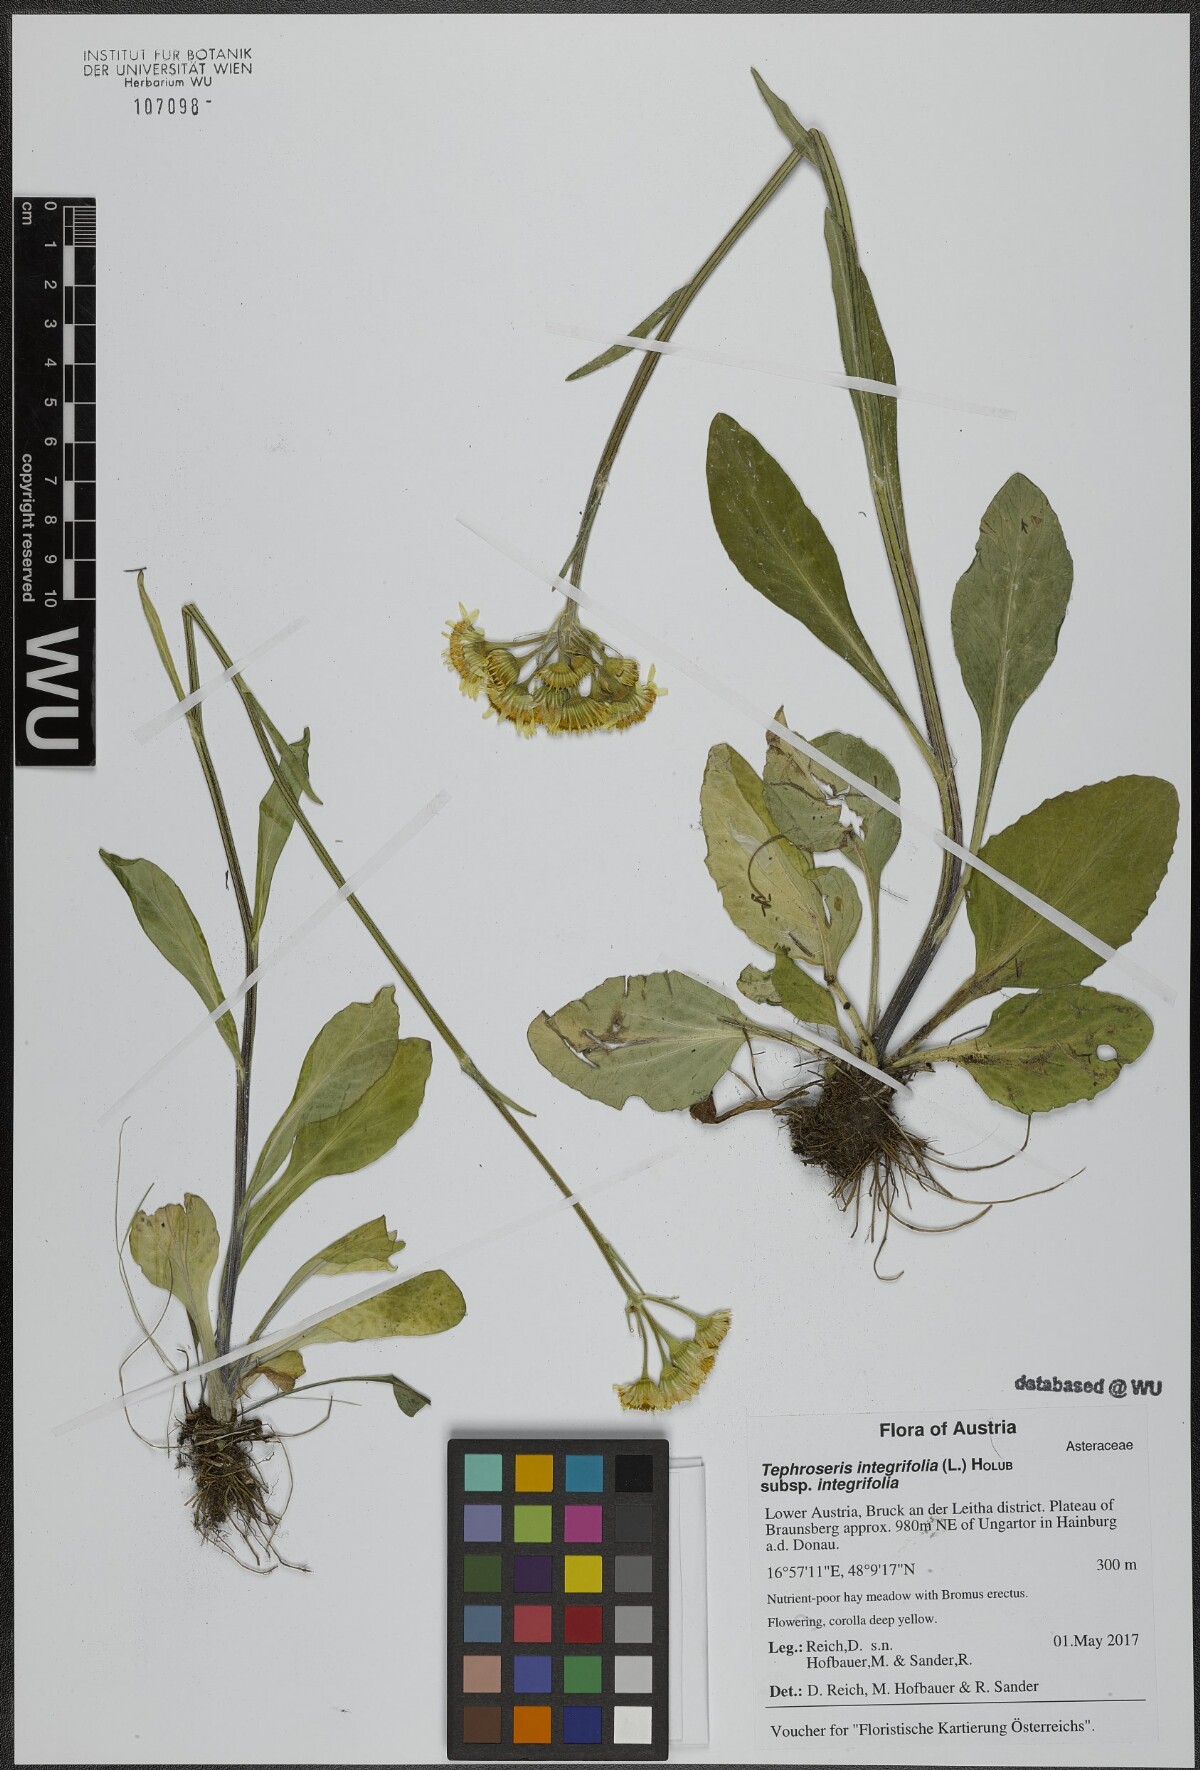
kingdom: Plantae
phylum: Tracheophyta
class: Magnoliopsida
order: Asterales
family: Asteraceae
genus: Tephroseris
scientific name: Tephroseris integrifolia
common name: Field fleawort
